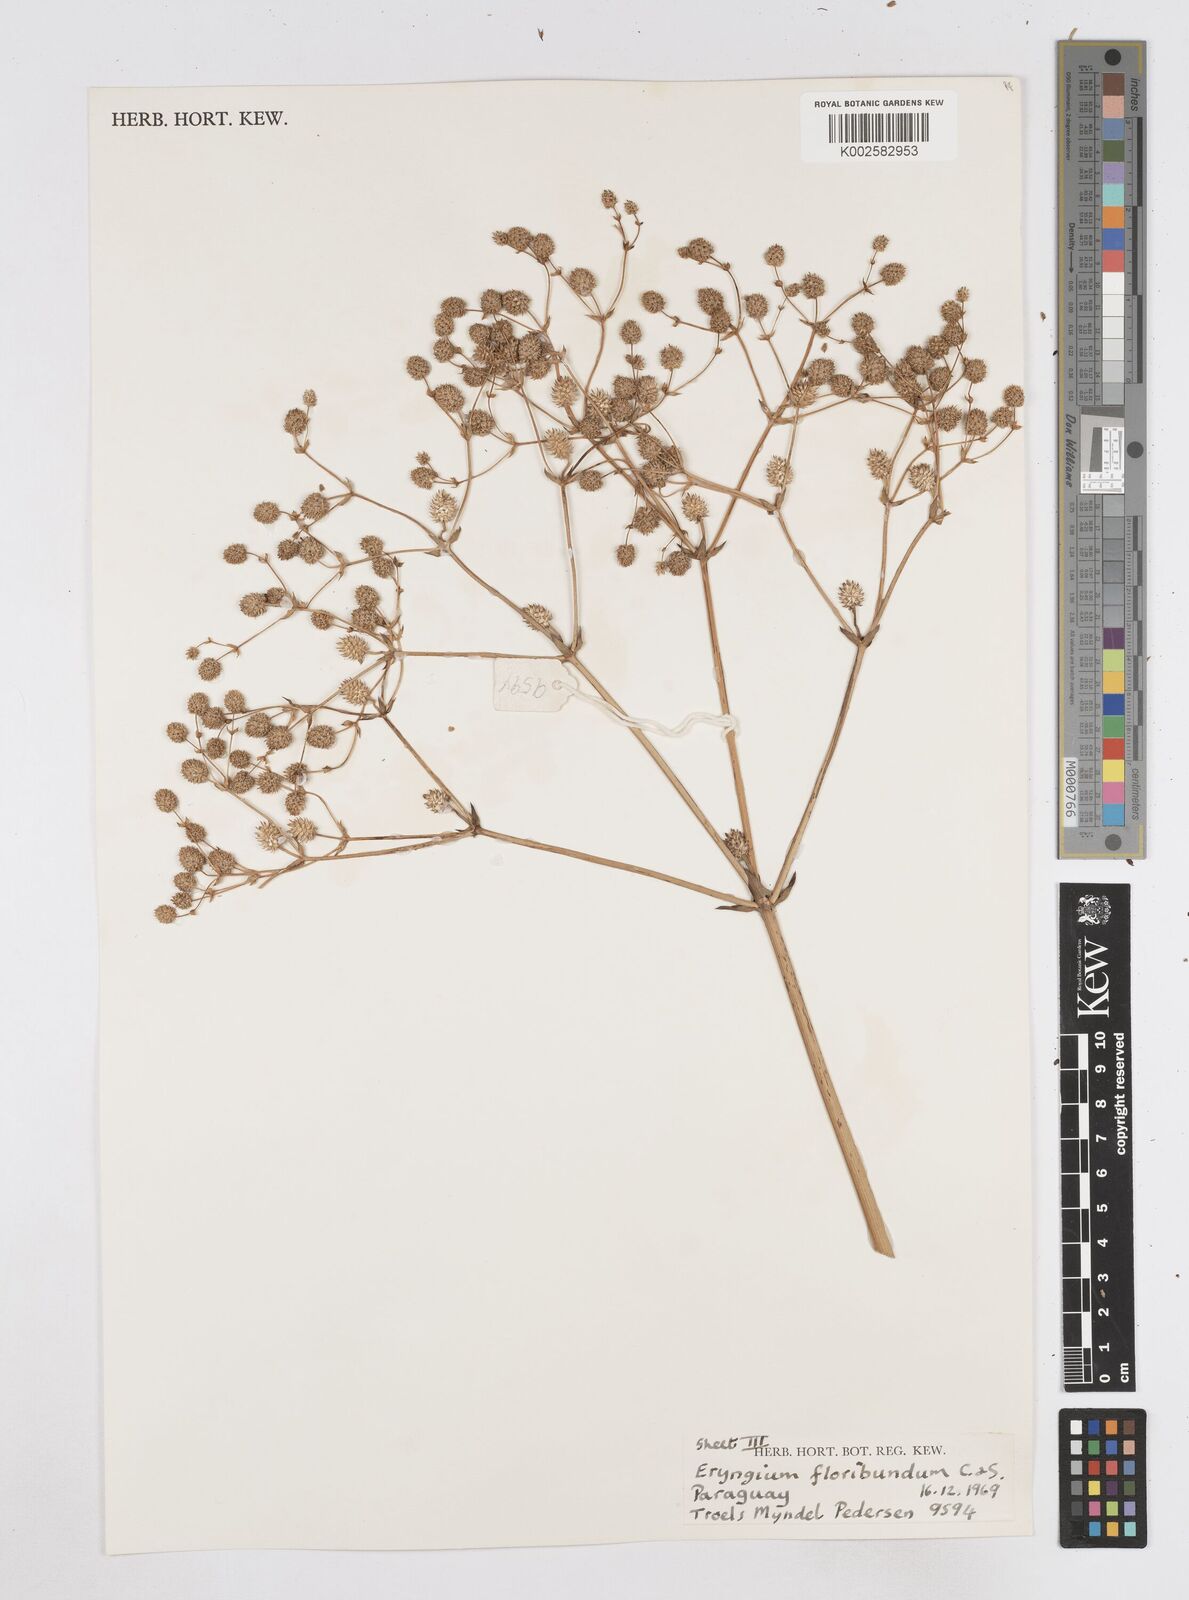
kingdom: Plantae
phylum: Tracheophyta
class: Magnoliopsida
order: Apiales
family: Apiaceae
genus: Eryngium
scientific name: Eryngium floribundum
